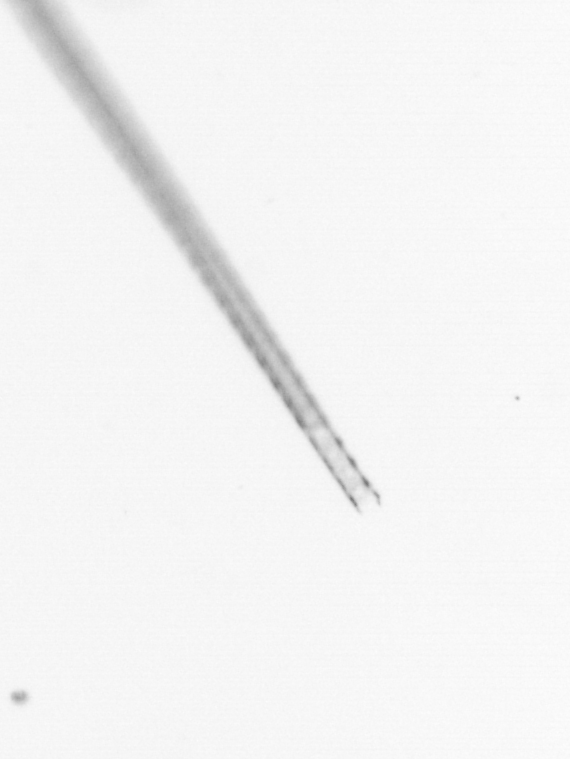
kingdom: Chromista
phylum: Ochrophyta
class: Bacillariophyceae
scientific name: Bacillariophyceae
